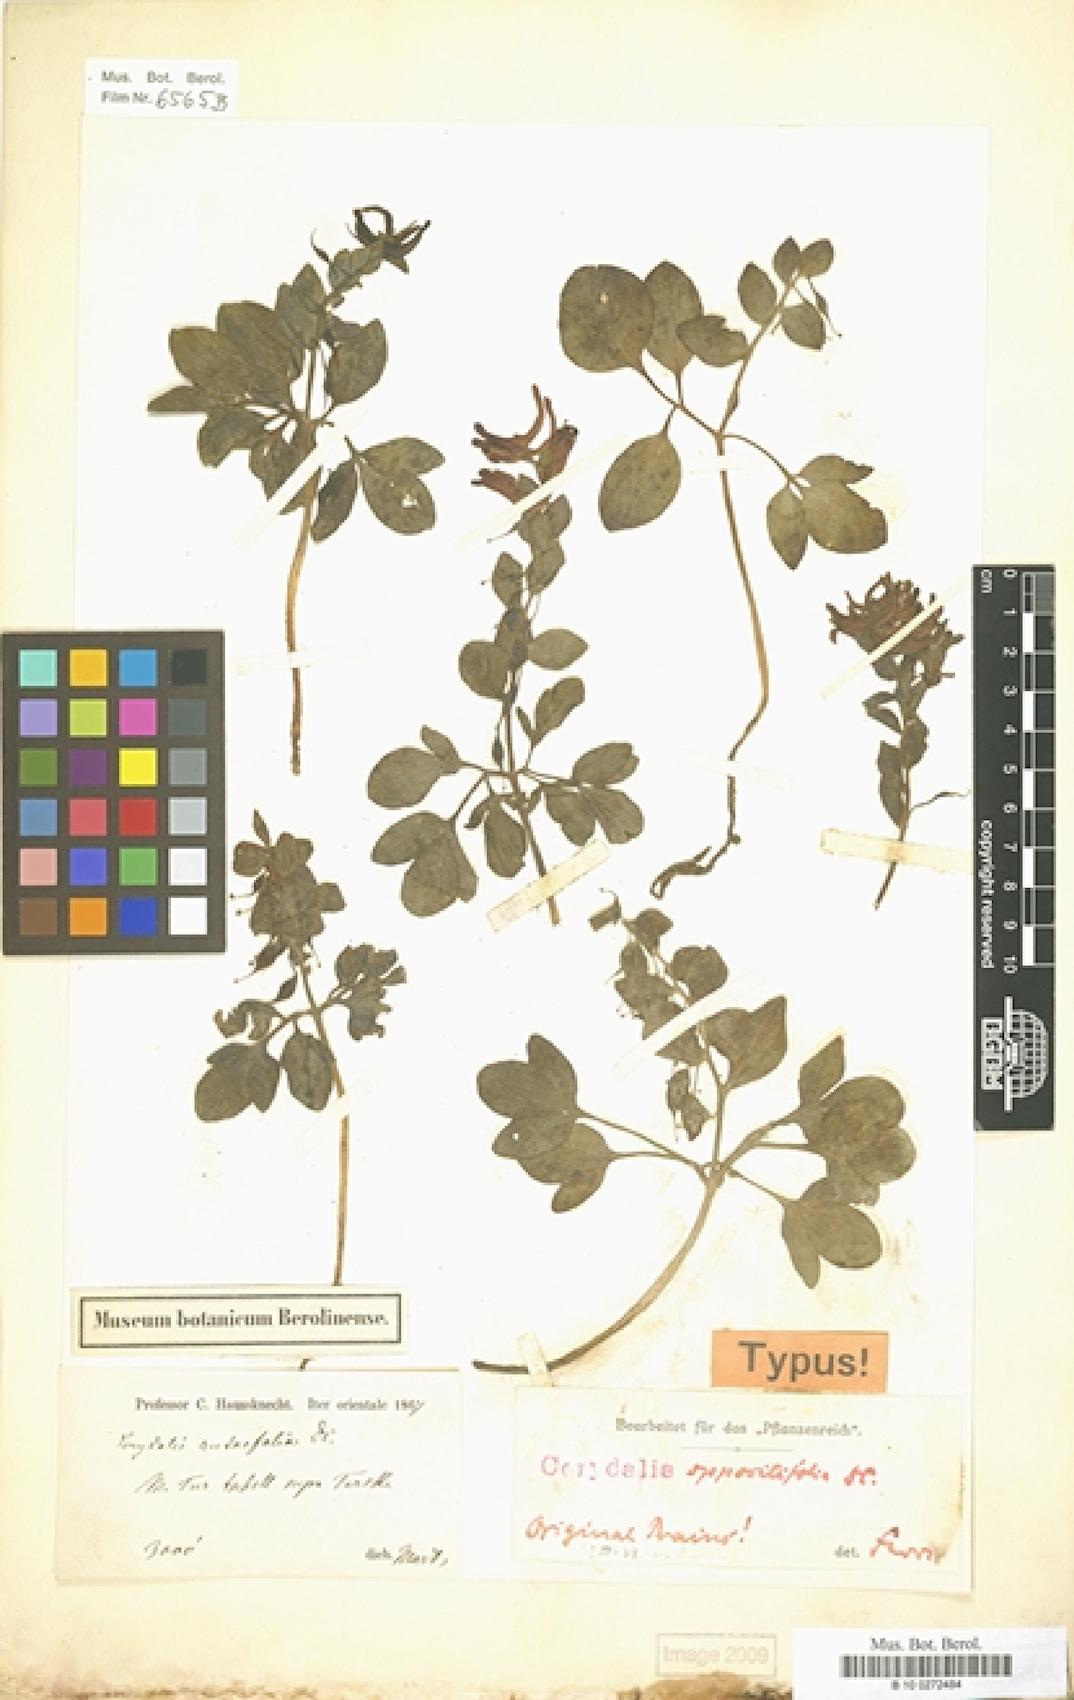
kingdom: Plantae
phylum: Tracheophyta
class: Magnoliopsida
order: Ranunculales
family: Papaveraceae
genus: Corydalis
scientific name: Corydalis oppositifolia
